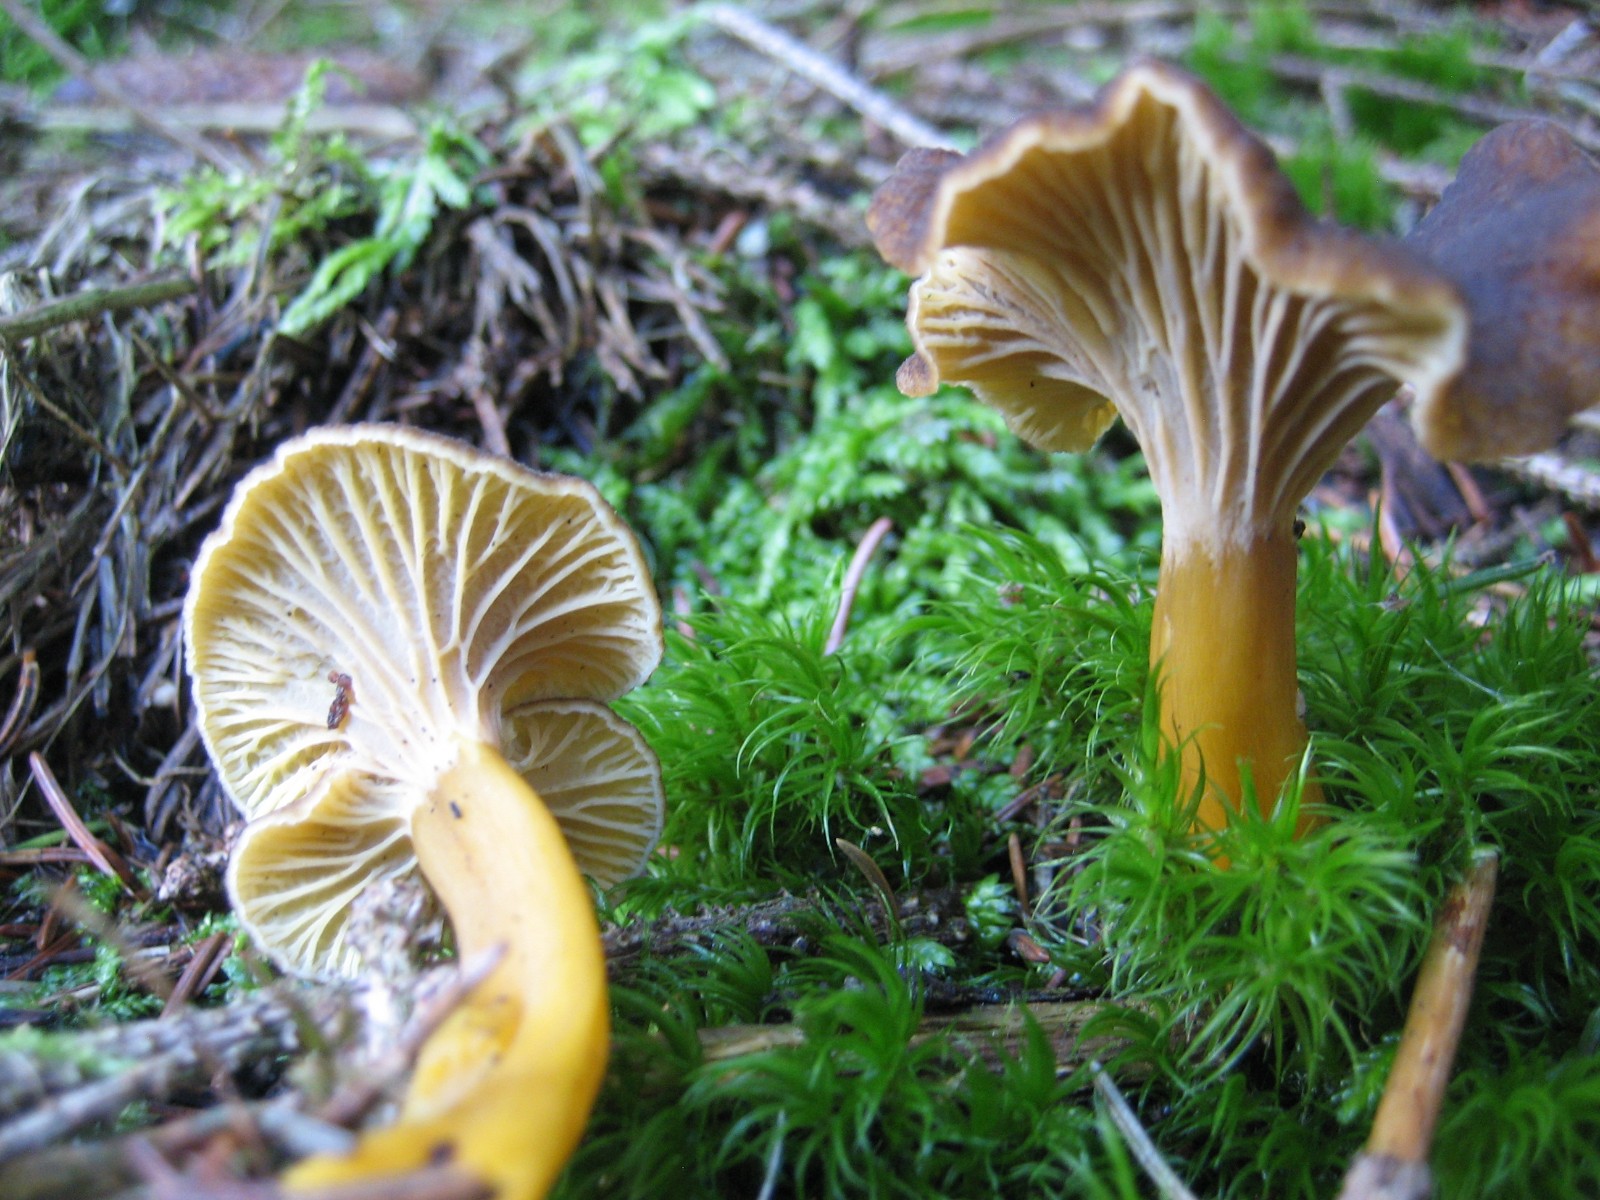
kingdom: Fungi
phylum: Basidiomycota
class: Agaricomycetes
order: Cantharellales
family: Hydnaceae
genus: Craterellus
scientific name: Craterellus tubaeformis
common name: tragt-kantarel
